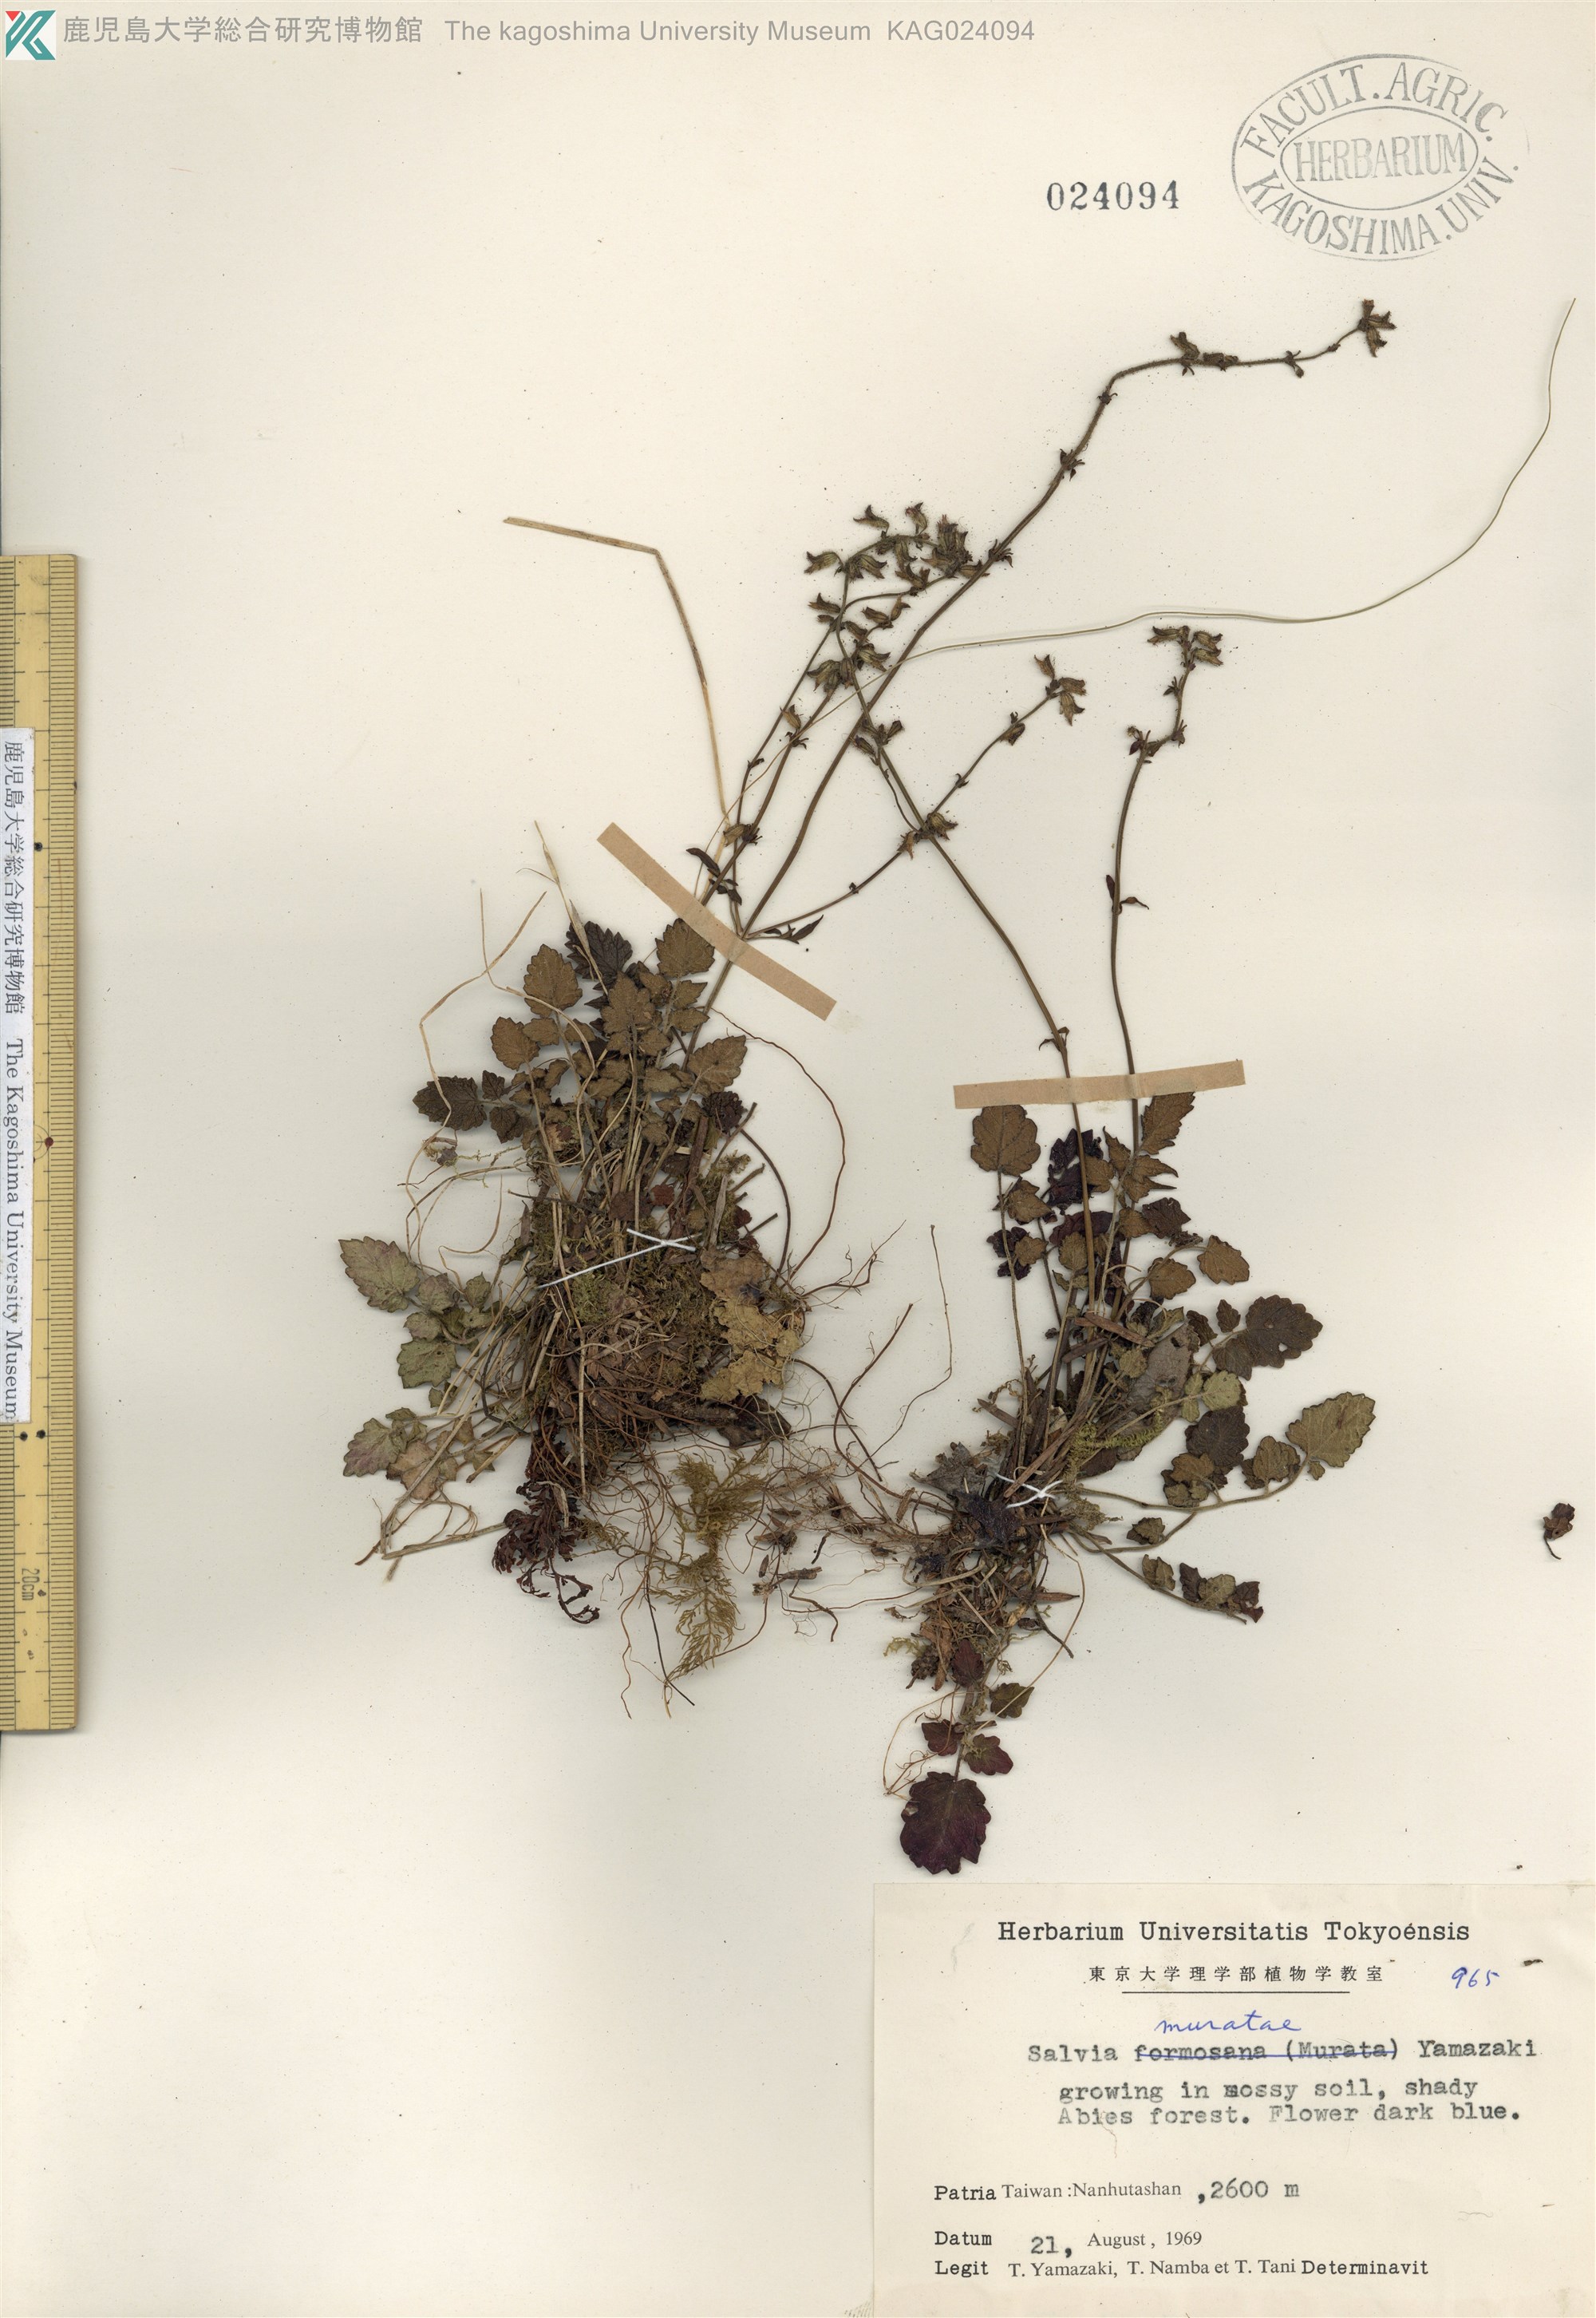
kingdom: Plantae
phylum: Tracheophyta
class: Magnoliopsida
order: Lamiales
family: Lamiaceae
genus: Salvia
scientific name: Salvia muratae
